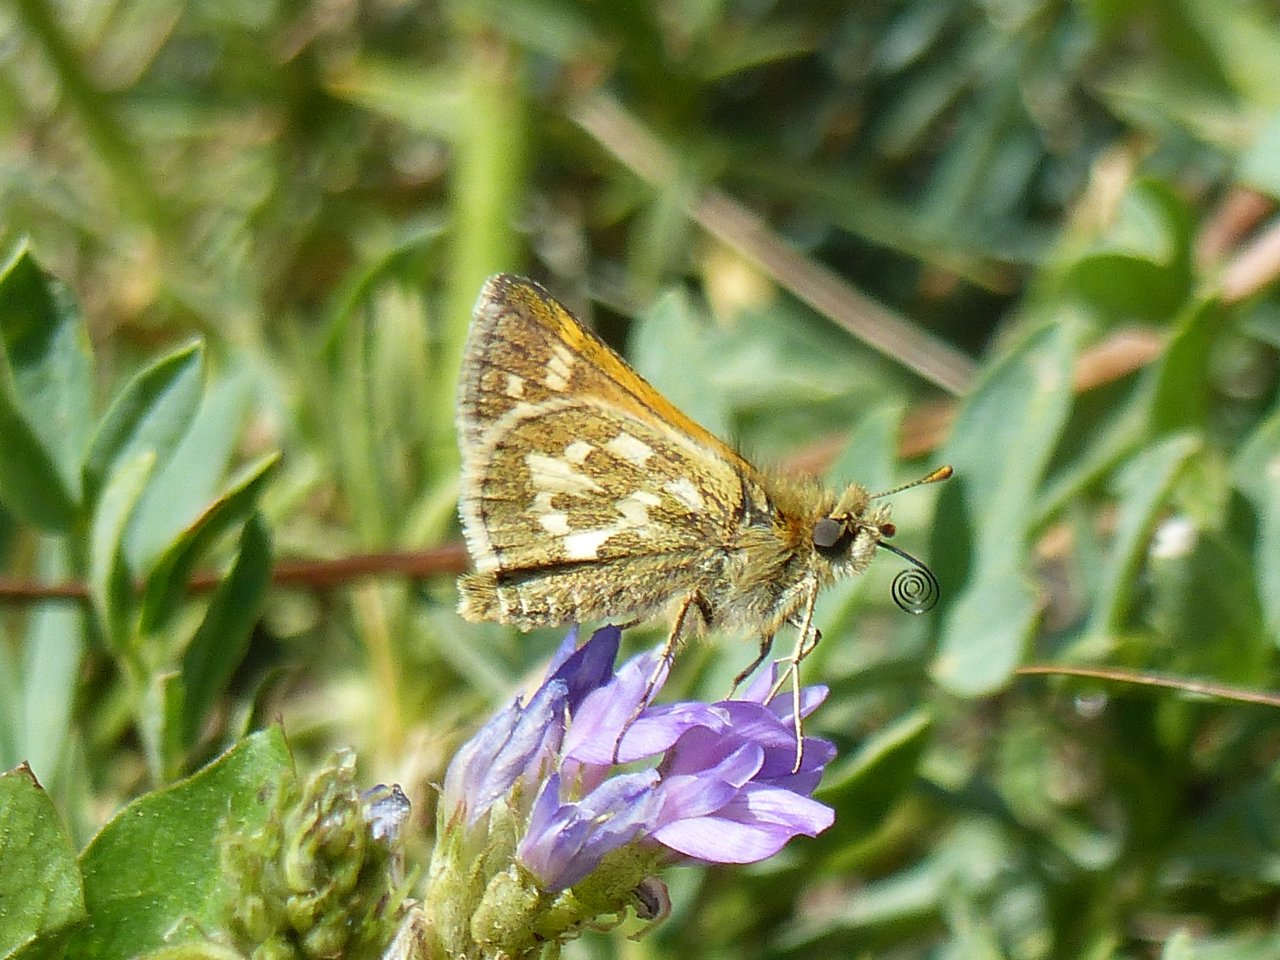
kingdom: Animalia
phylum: Arthropoda
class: Insecta
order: Lepidoptera
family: Hesperiidae
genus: Polites
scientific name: Polites sabuleti
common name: Draco Skipper
